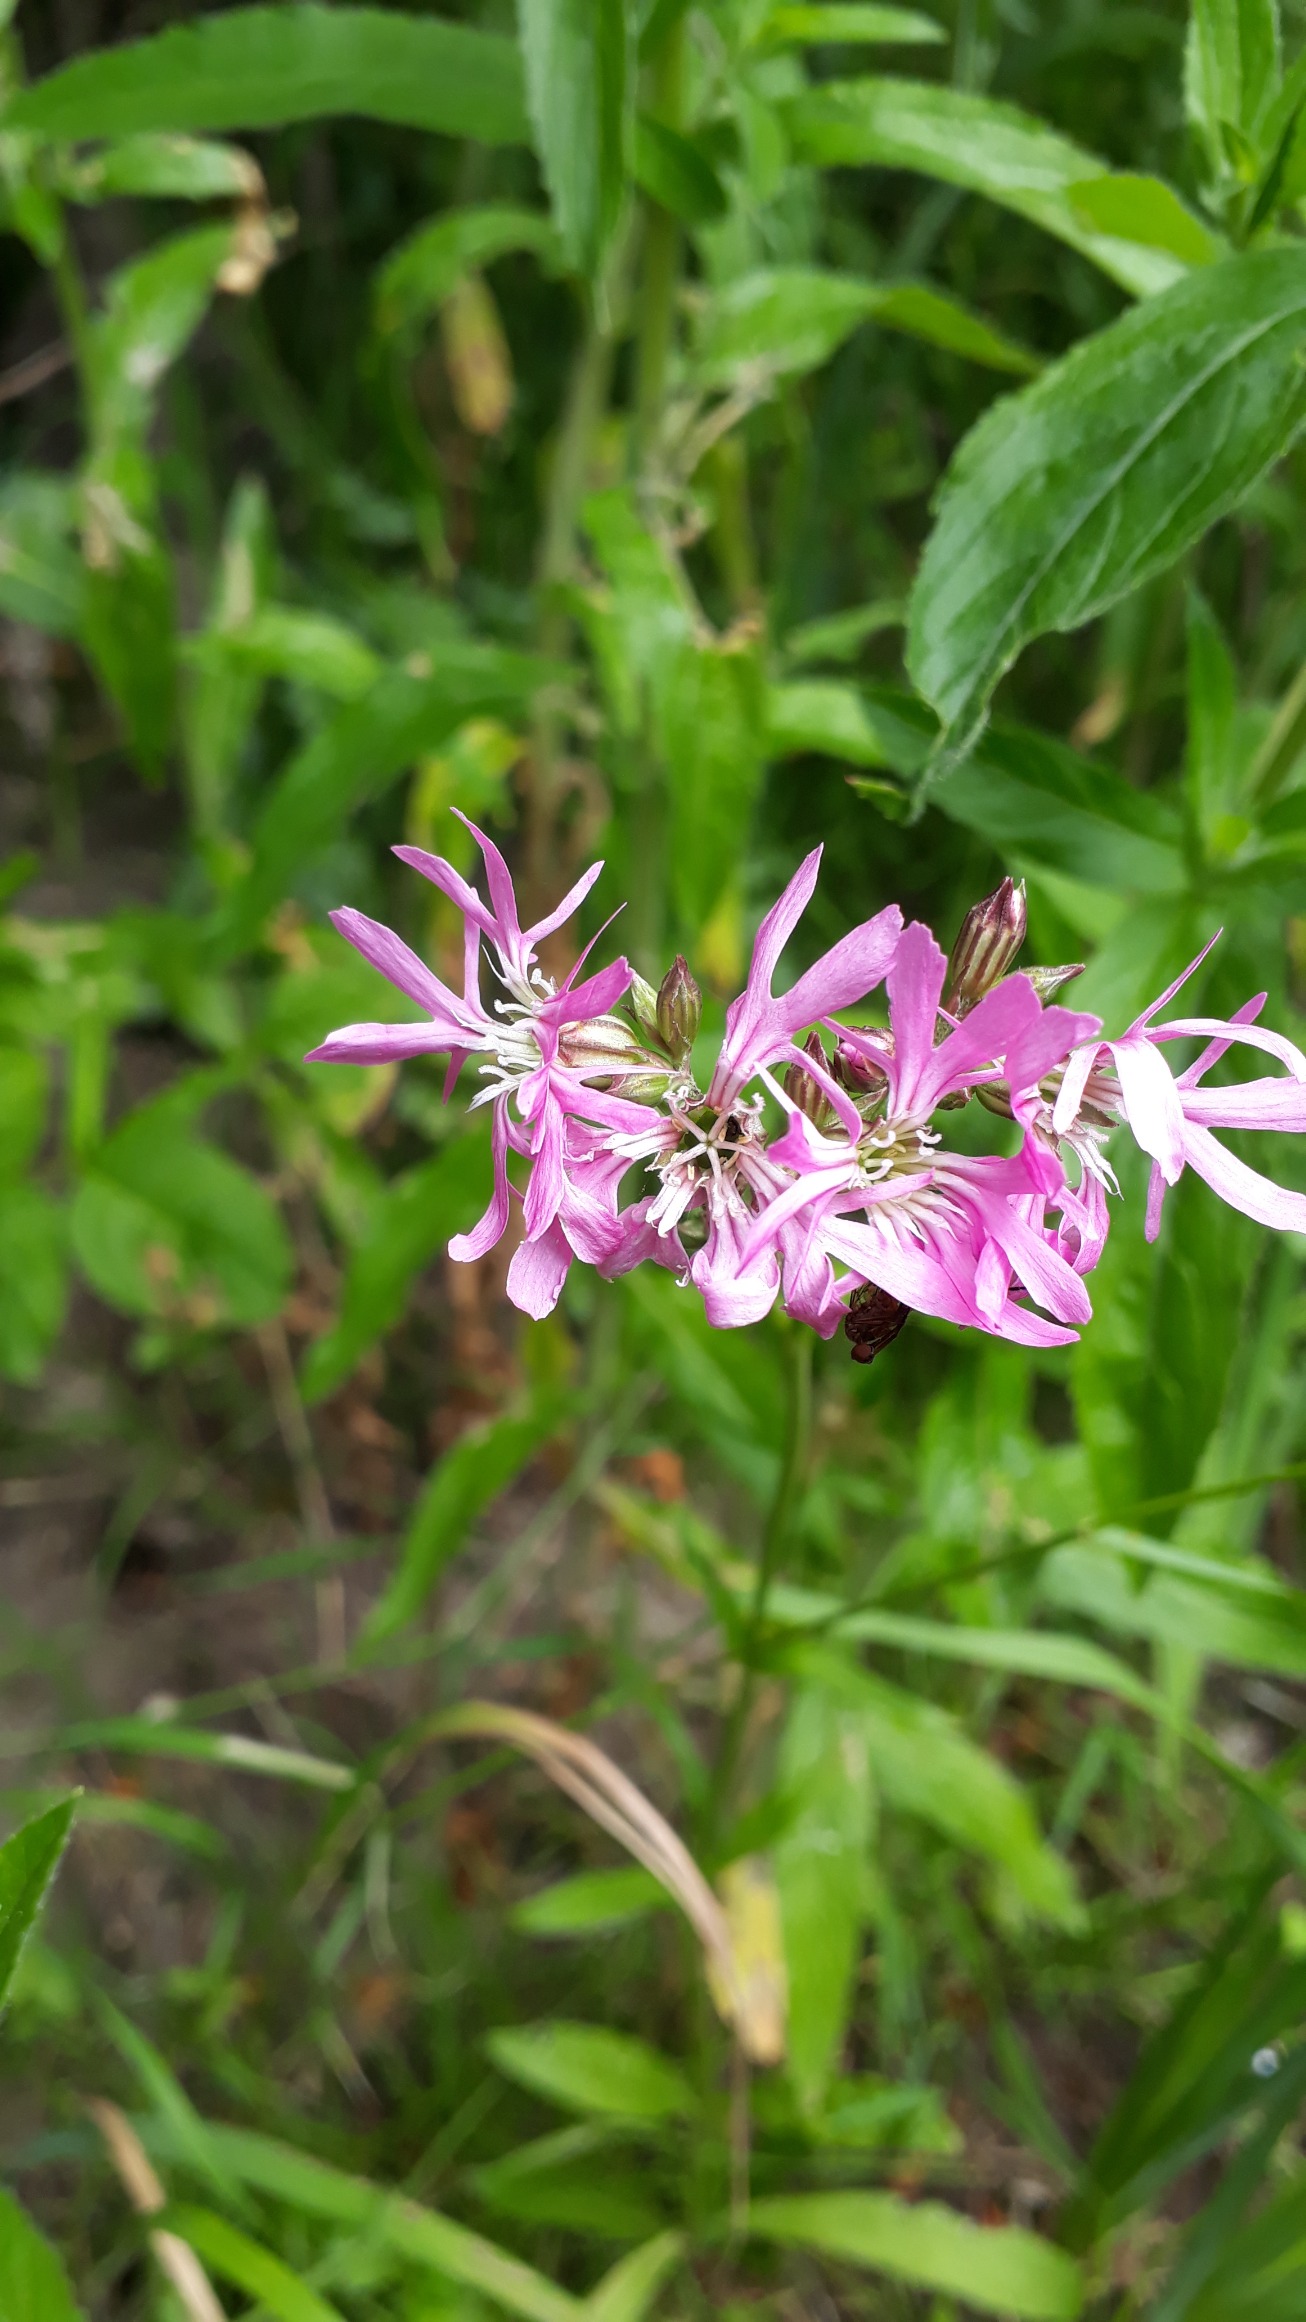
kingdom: Plantae
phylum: Tracheophyta
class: Magnoliopsida
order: Caryophyllales
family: Caryophyllaceae
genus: Silene
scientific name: Silene flos-cuculi
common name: Trævlekrone
